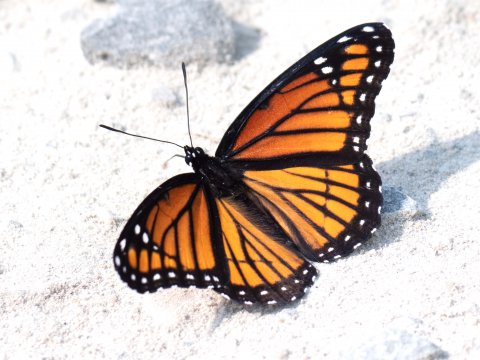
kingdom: Animalia
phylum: Arthropoda
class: Insecta
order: Lepidoptera
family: Nymphalidae
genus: Limenitis
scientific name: Limenitis archippus
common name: Viceroy
